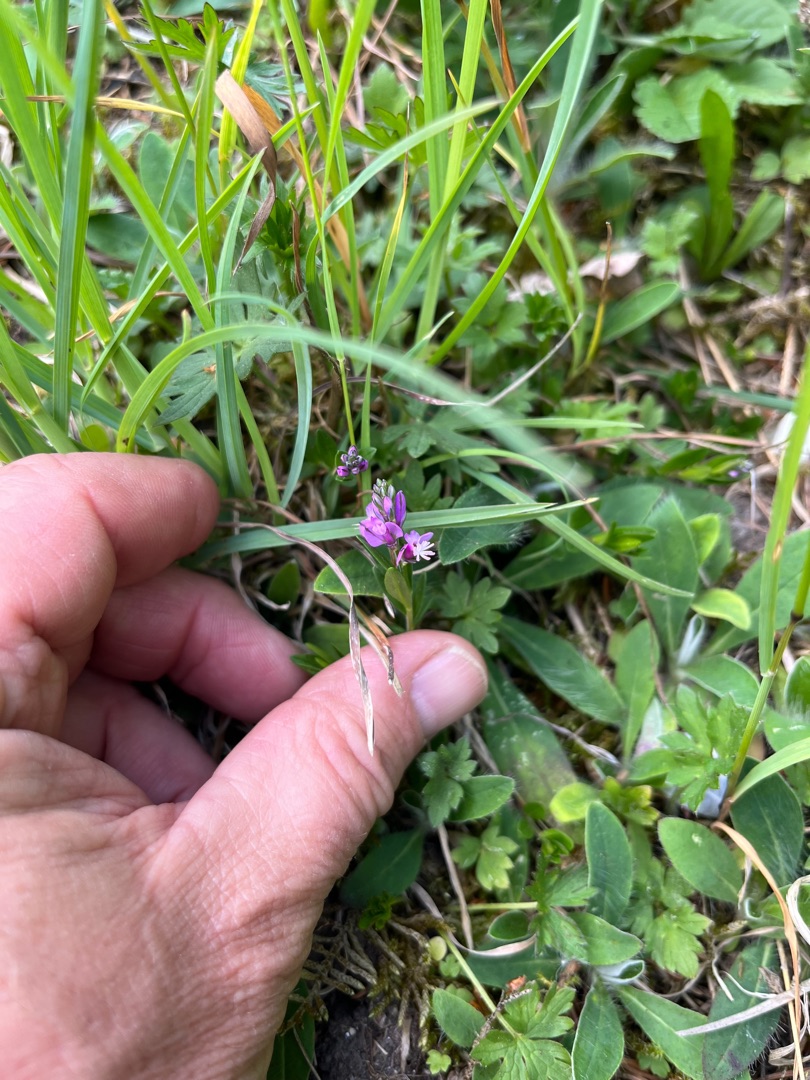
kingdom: Plantae
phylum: Tracheophyta
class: Magnoliopsida
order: Fabales
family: Polygalaceae
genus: Polygala
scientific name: Polygala vulgaris
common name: Almindelig mælkeurt
